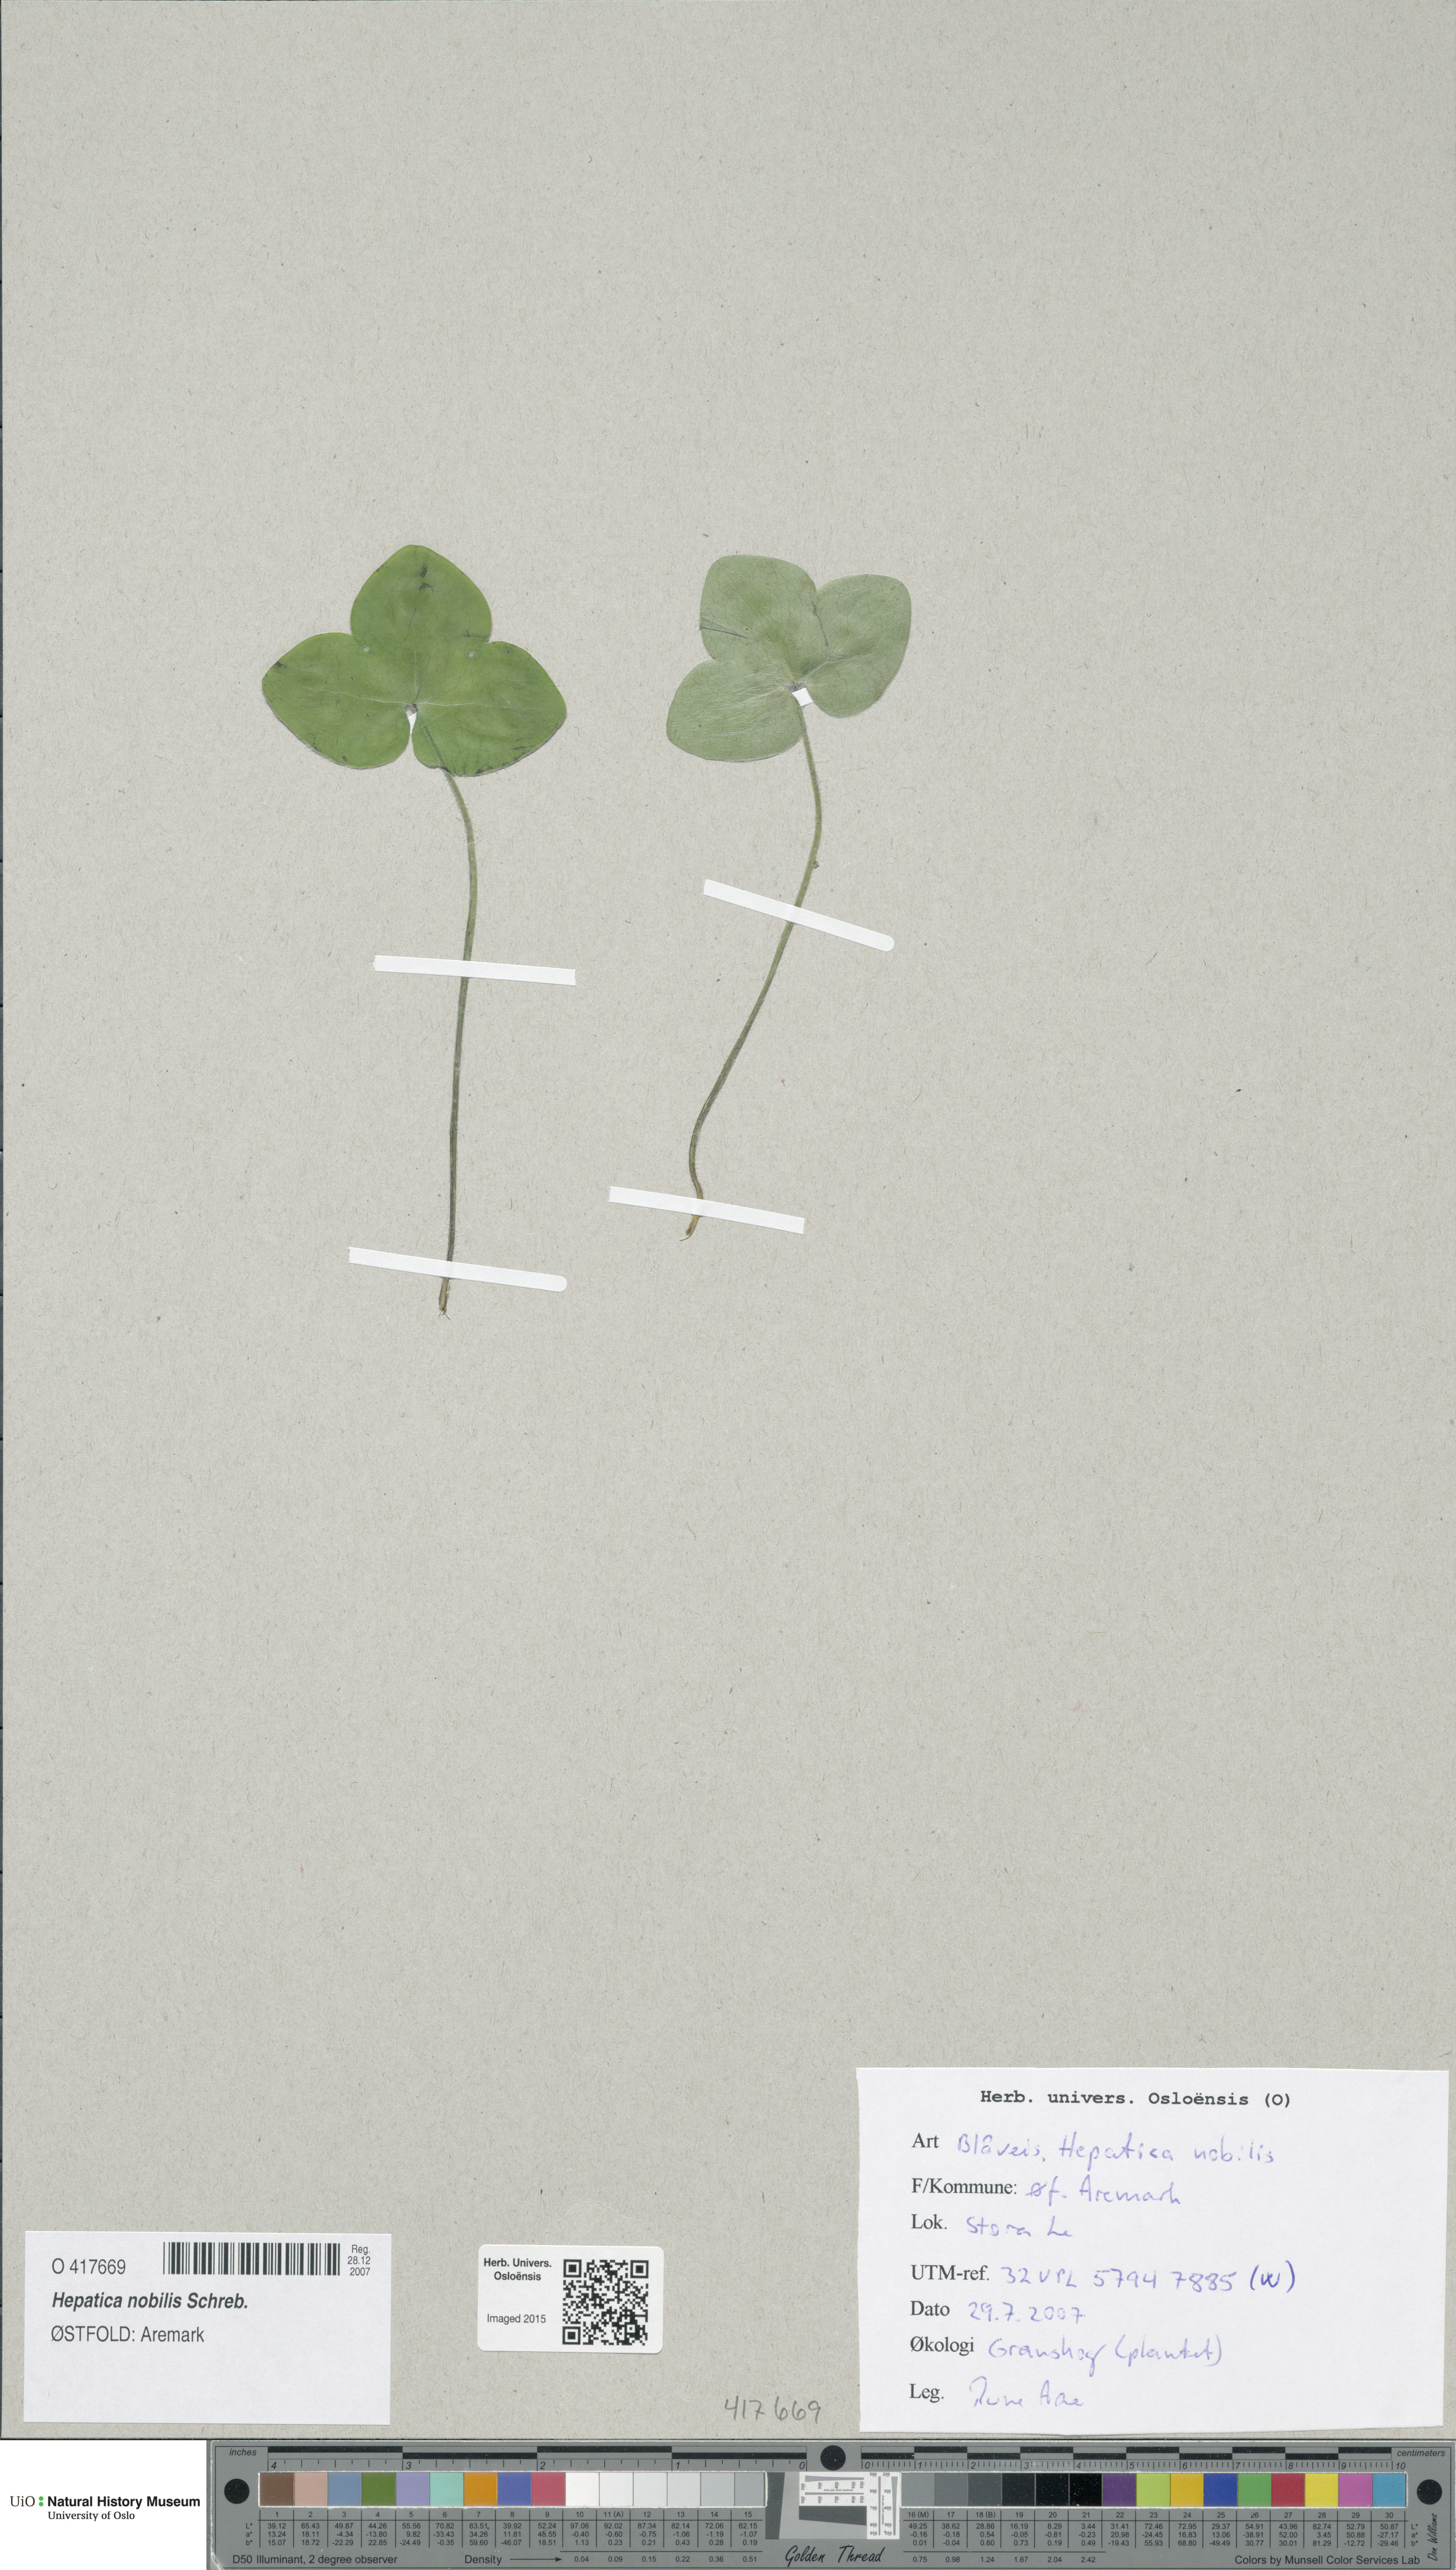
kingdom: Plantae
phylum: Tracheophyta
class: Magnoliopsida
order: Ranunculales
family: Ranunculaceae
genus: Hepatica
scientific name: Hepatica nobilis
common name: Liverleaf
